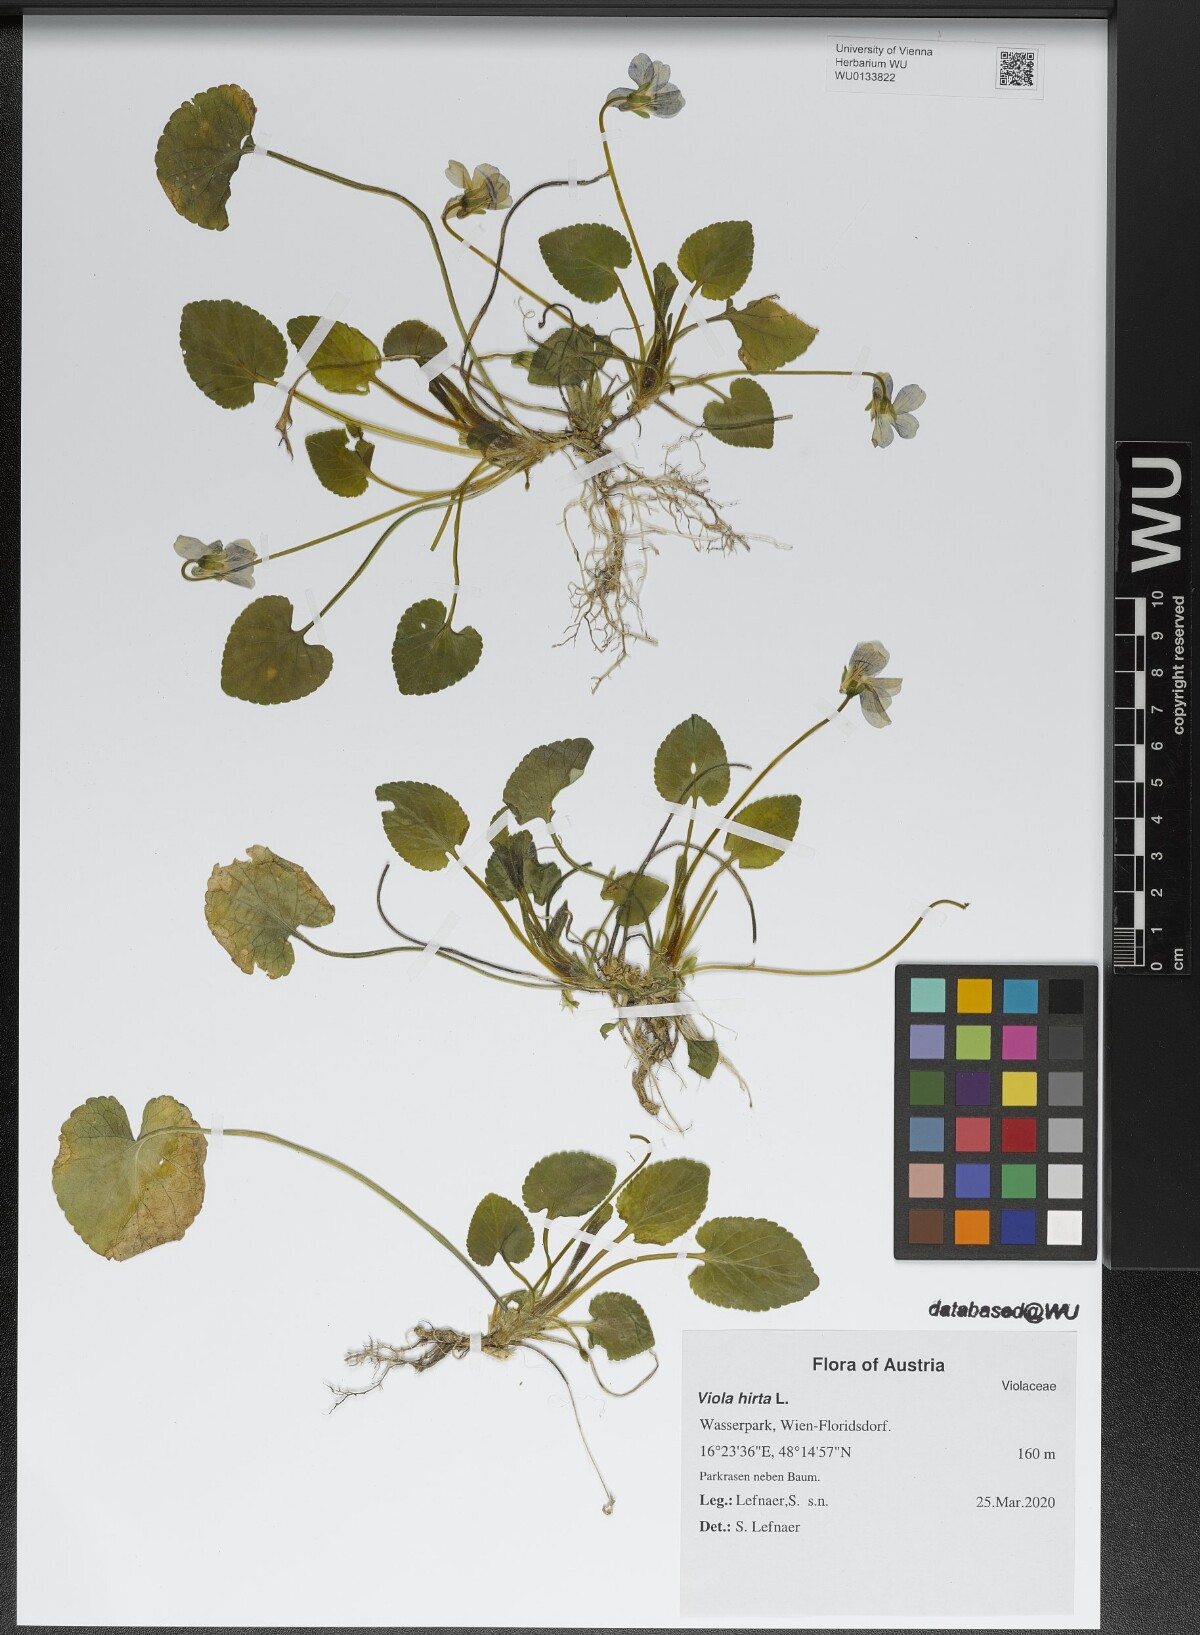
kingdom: Plantae
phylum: Tracheophyta
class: Magnoliopsida
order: Malpighiales
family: Violaceae
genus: Viola
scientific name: Viola hirta
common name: Hairy violet
